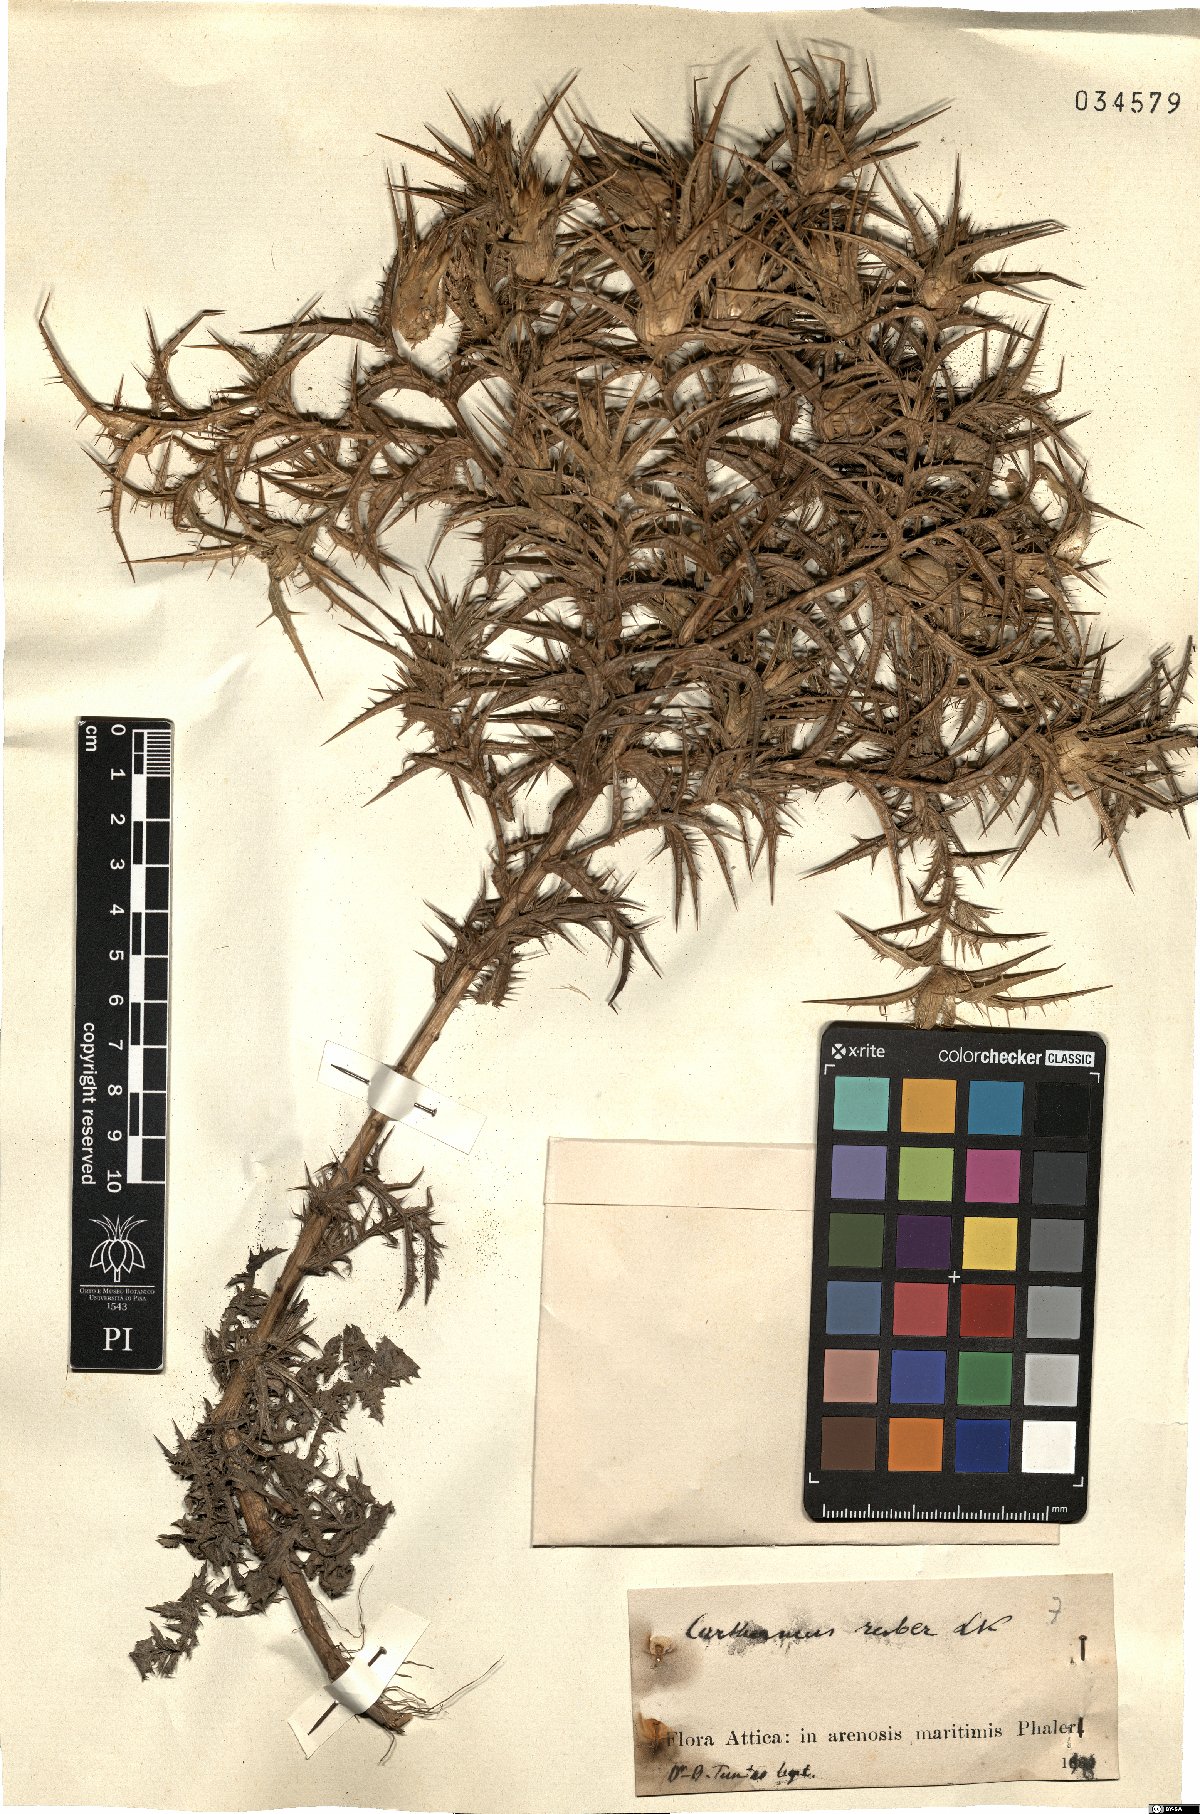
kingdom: Plantae
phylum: Tracheophyta
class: Magnoliopsida
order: Asterales
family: Asteraceae
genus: Carthamus
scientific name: Carthamus dentatus
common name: Toothed thistle
